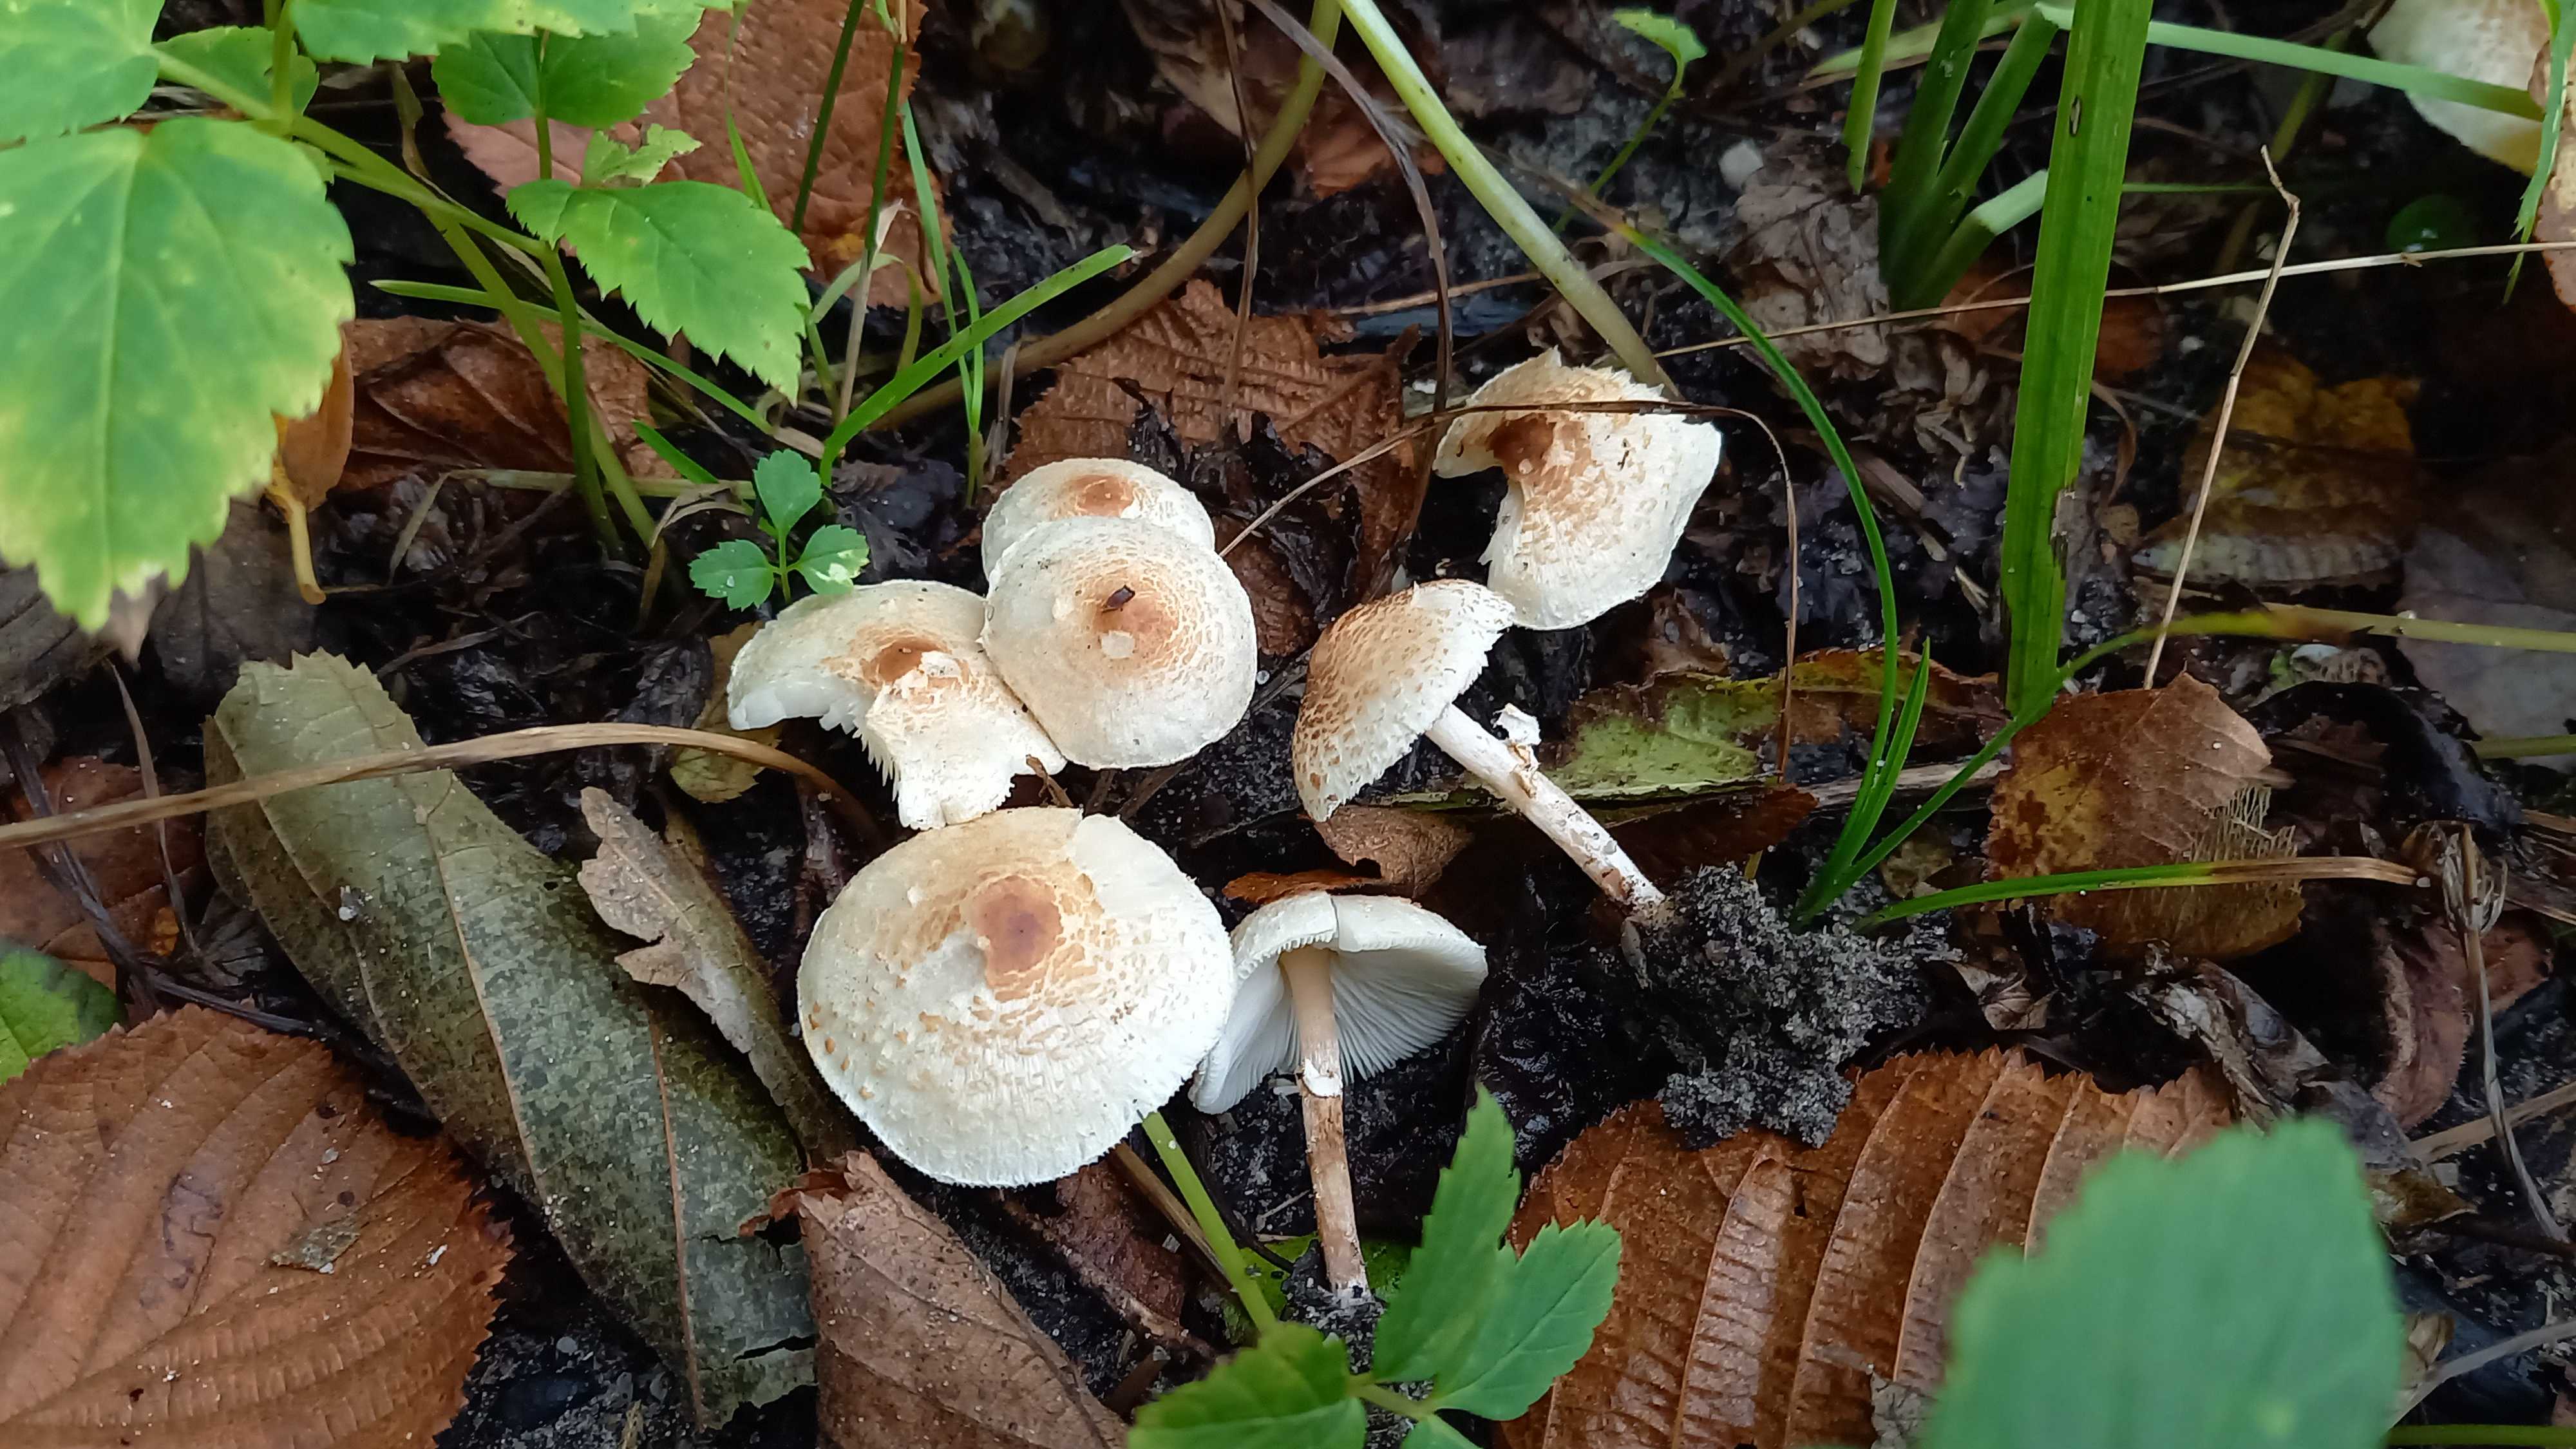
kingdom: Fungi
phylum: Basidiomycota
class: Agaricomycetes
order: Agaricales
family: Agaricaceae
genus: Lepiota
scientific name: Lepiota cristata
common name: stinkende parasolhat
